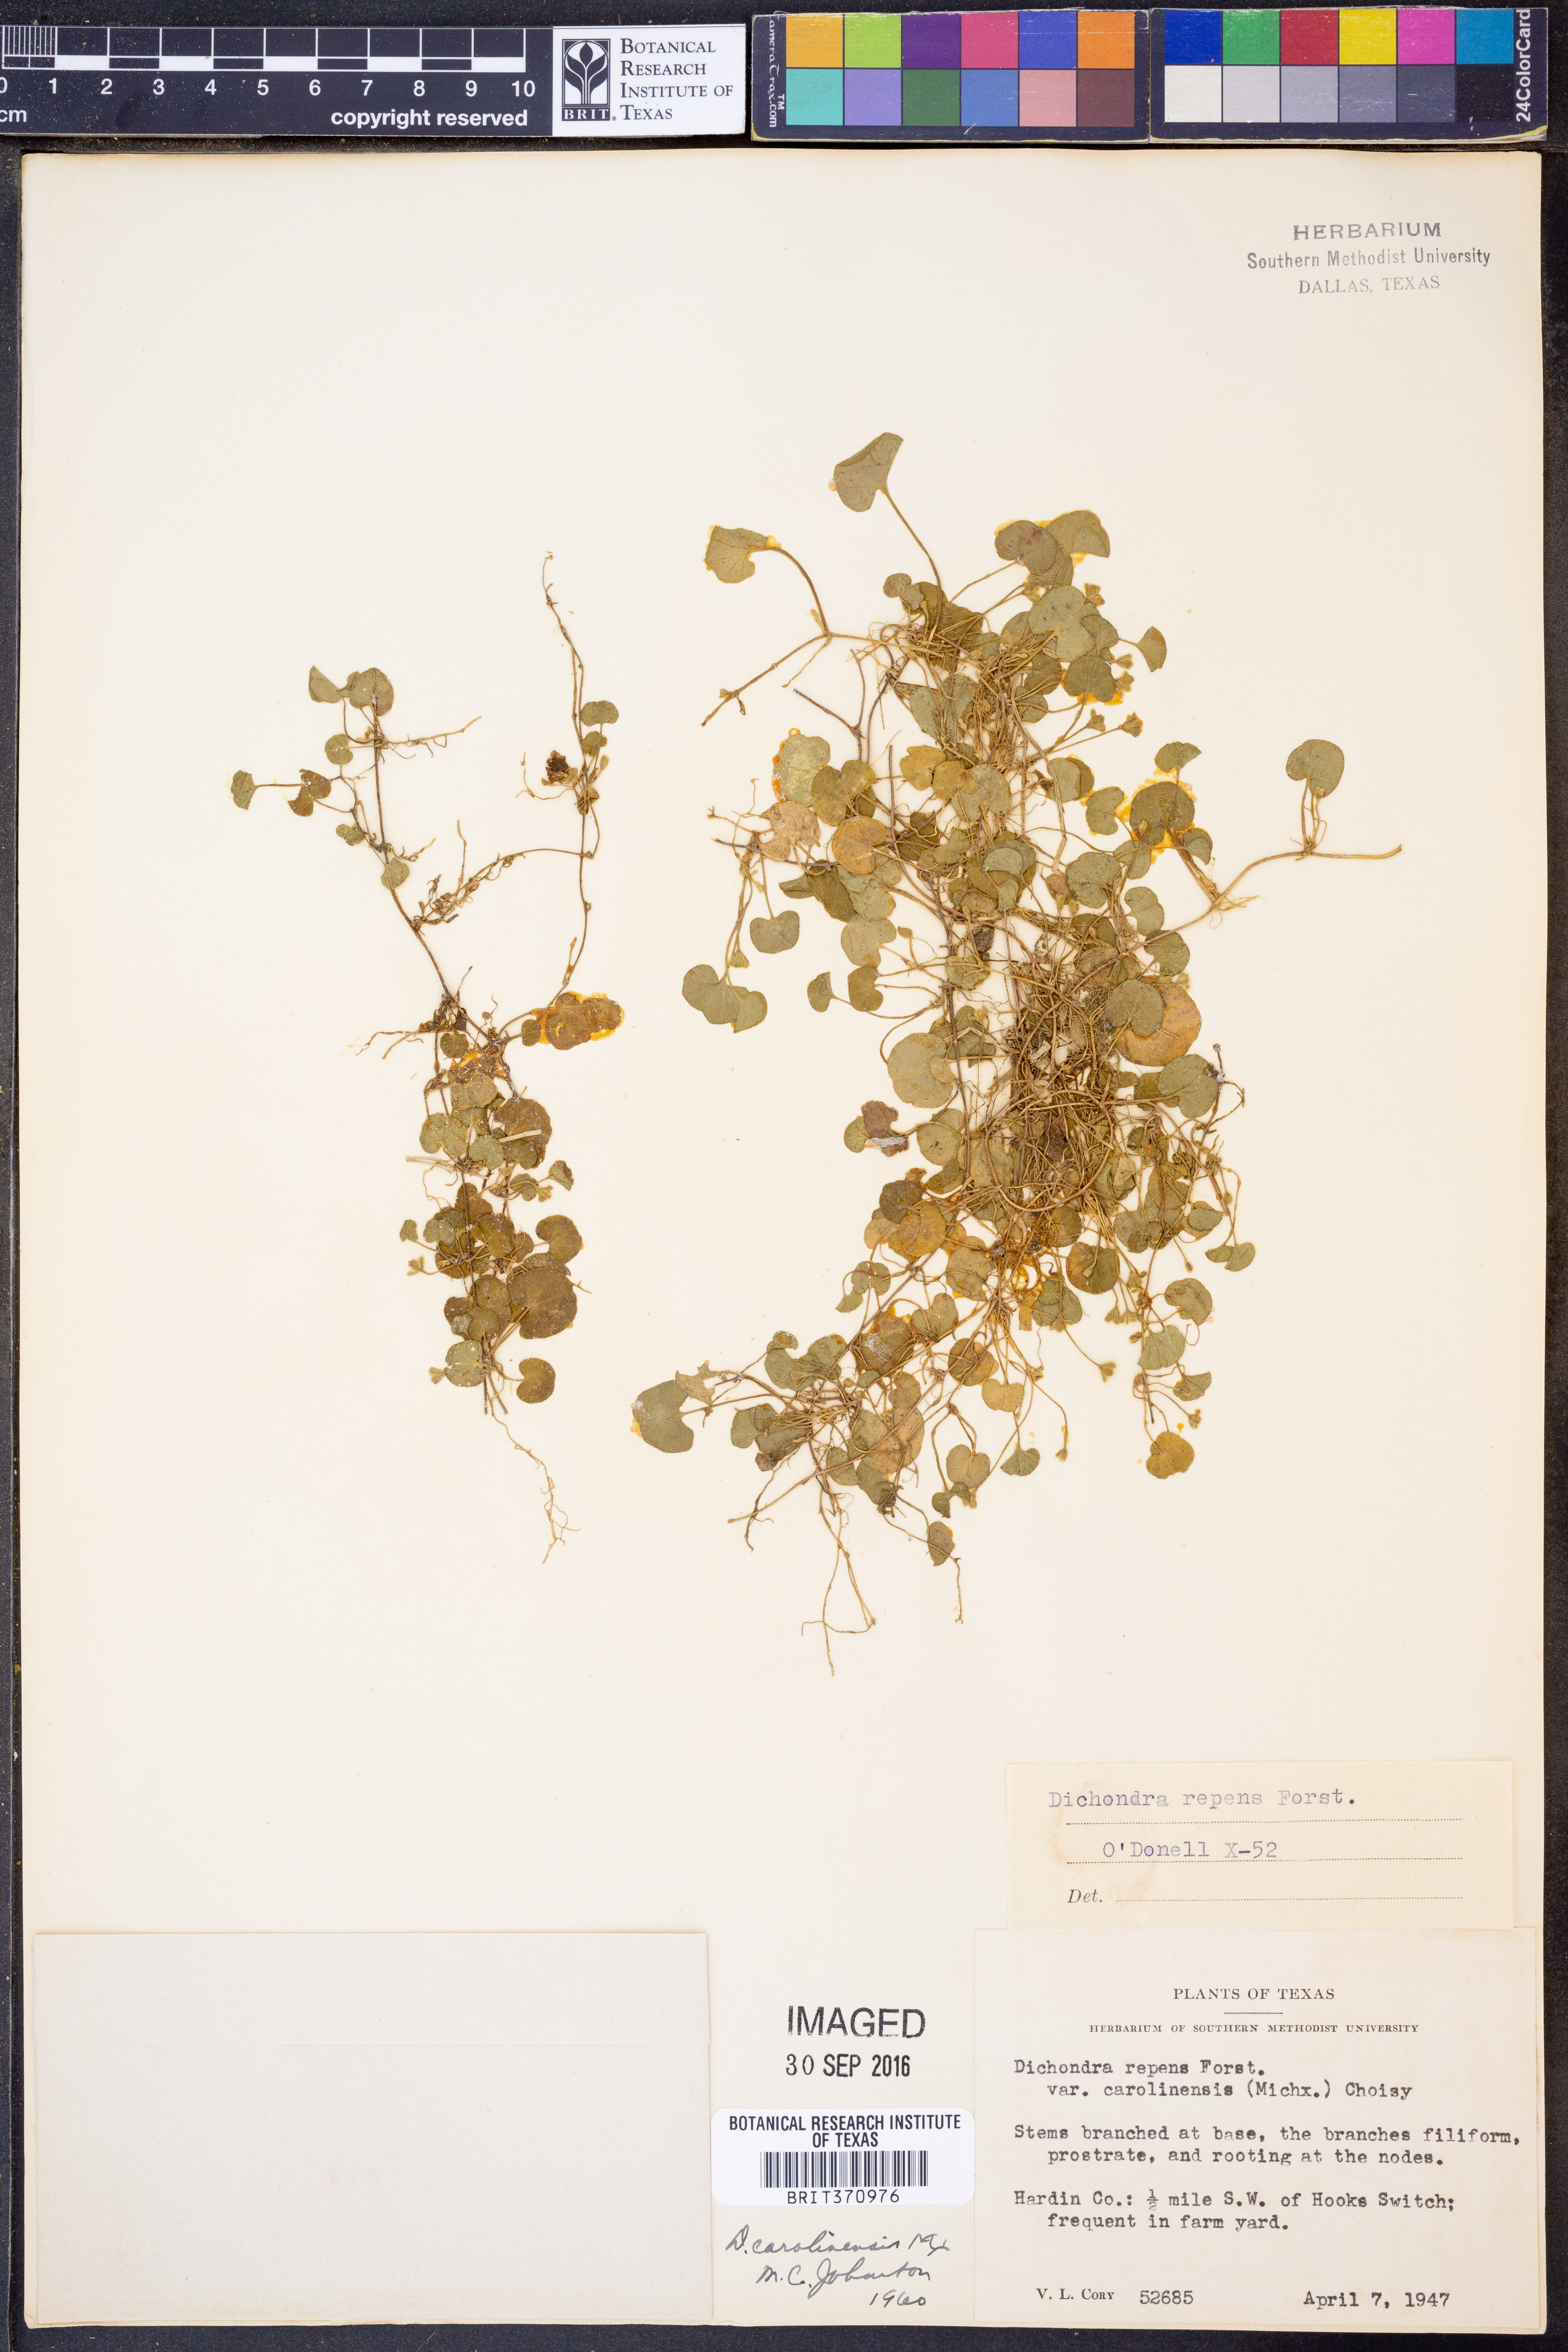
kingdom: Plantae
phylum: Tracheophyta
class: Magnoliopsida
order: Solanales
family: Convolvulaceae
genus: Dichondra
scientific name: Dichondra carolinensis
